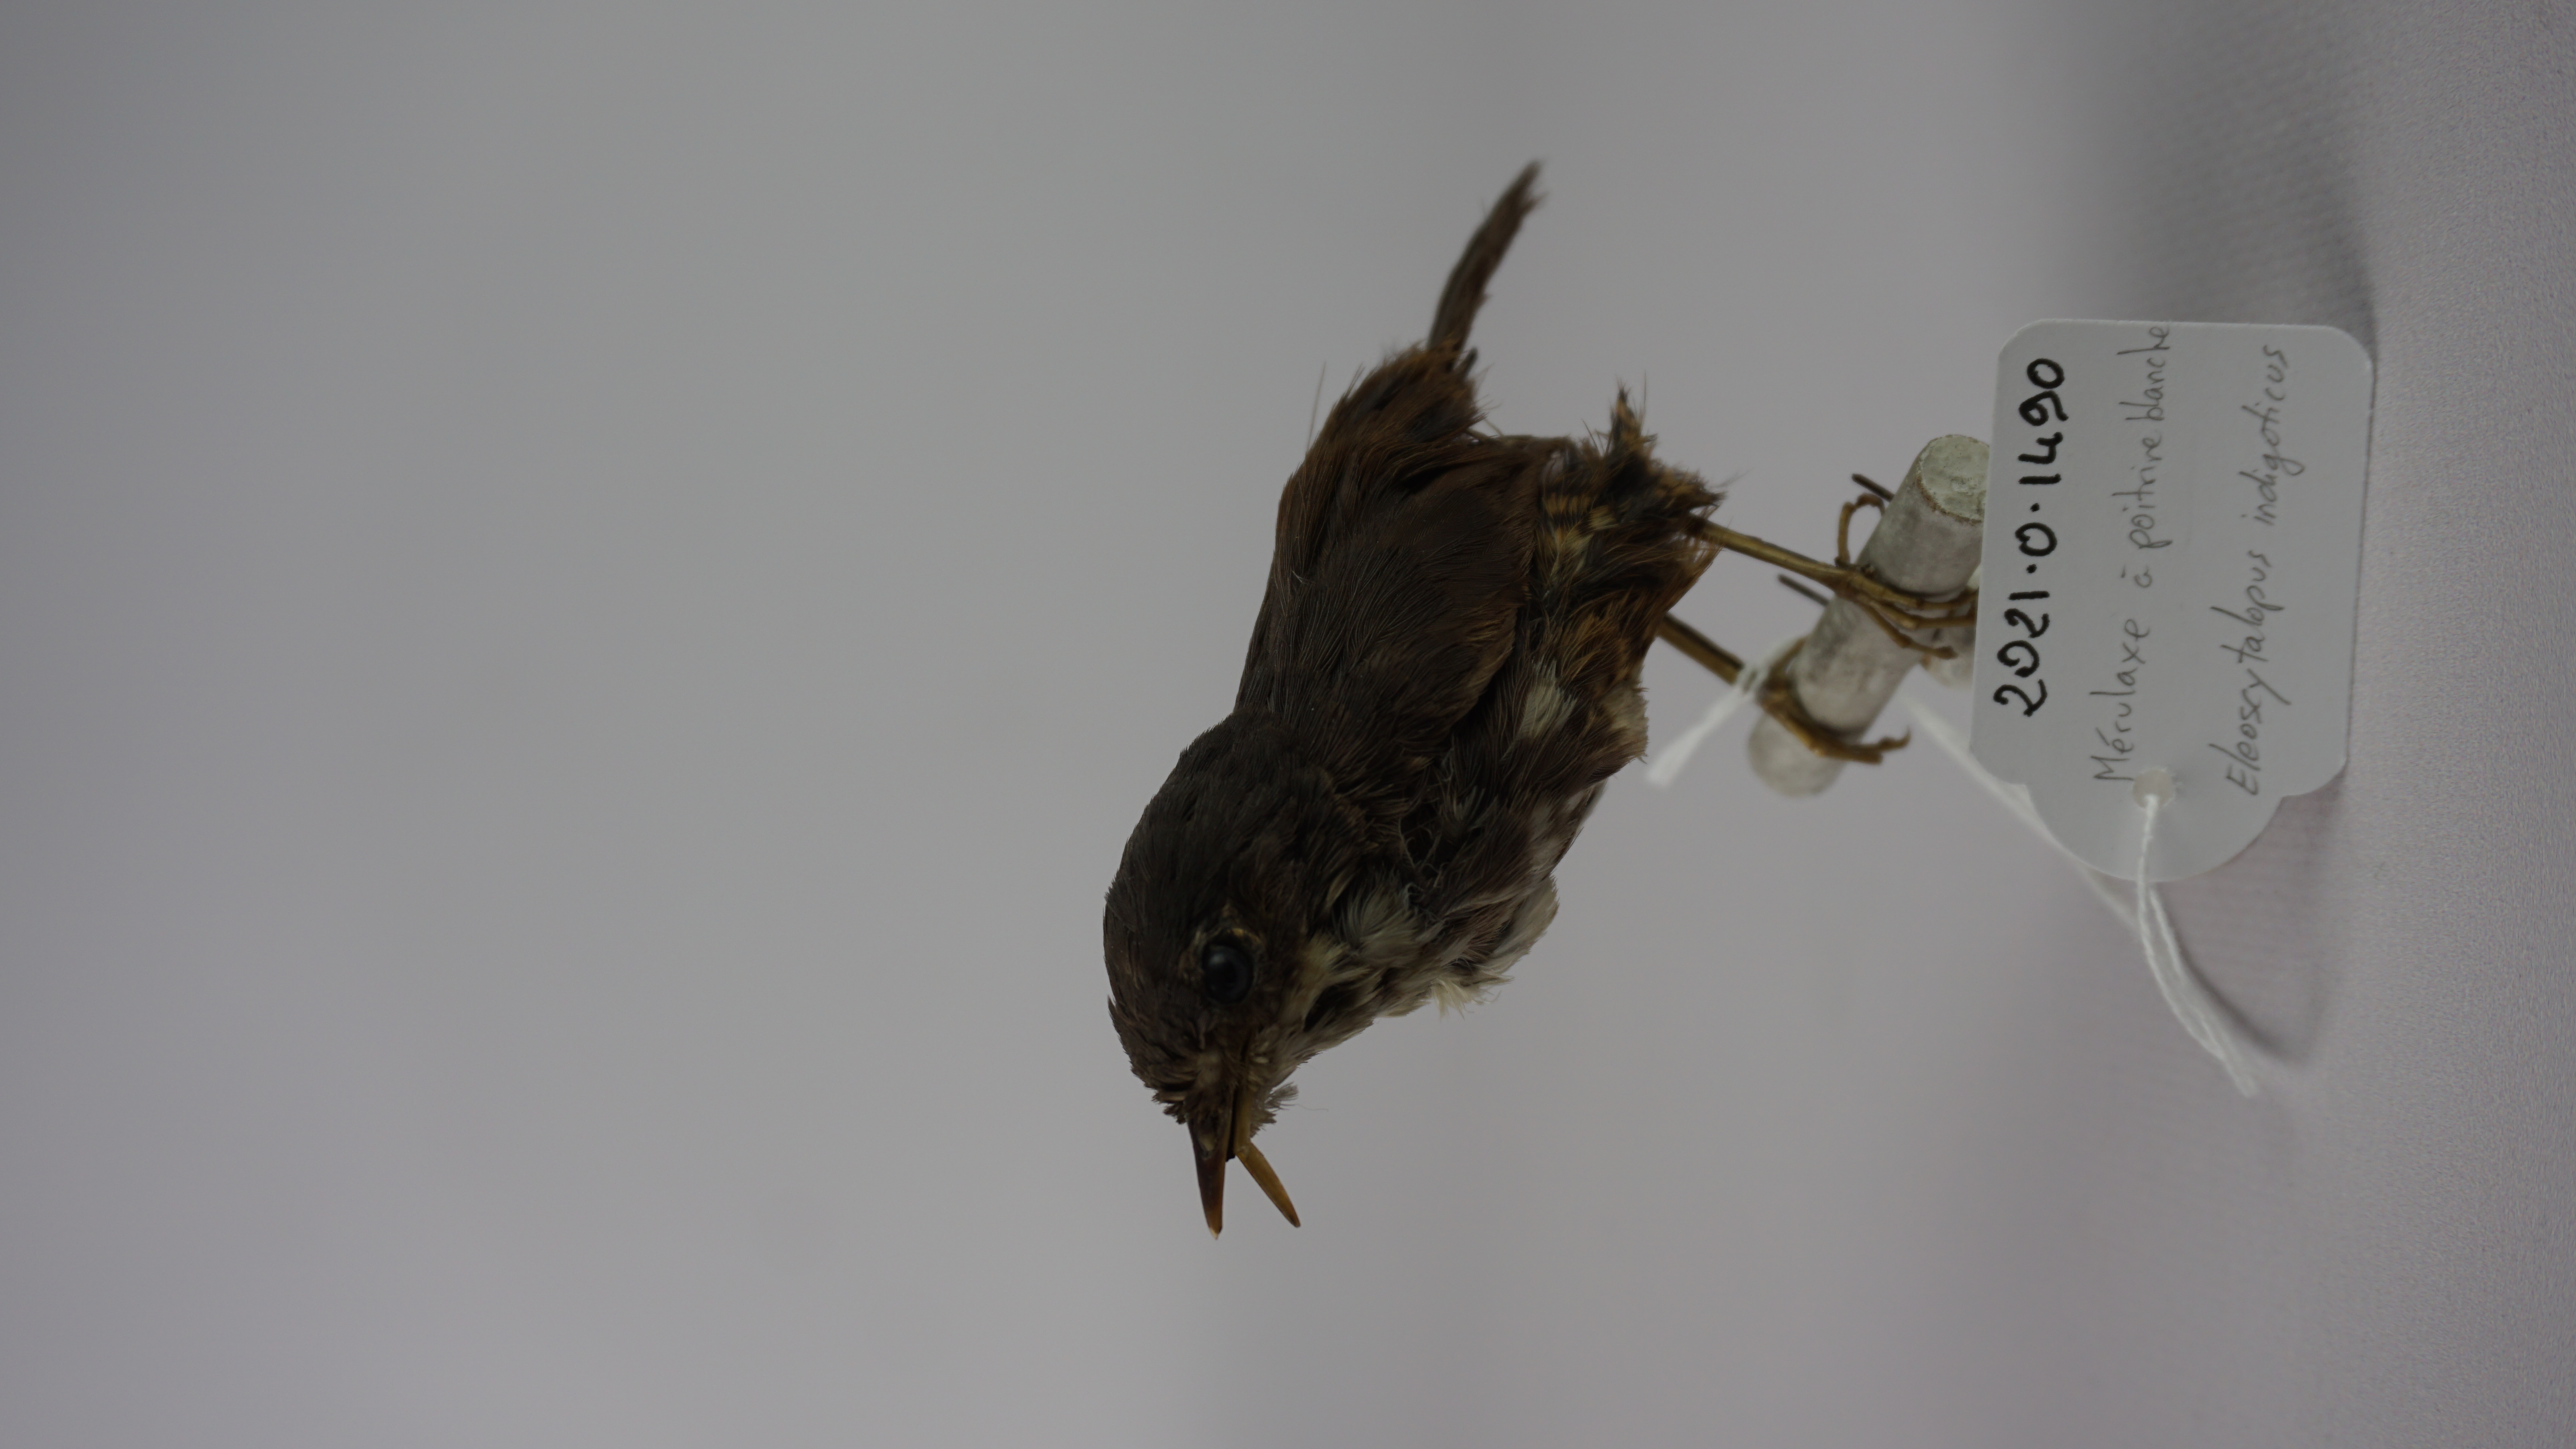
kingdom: Animalia
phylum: Chordata
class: Aves
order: Passeriformes
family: Rhinocryptidae
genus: Eleoscytalopus
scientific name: Eleoscytalopus indigoticus
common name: White-breasted tapaculo
